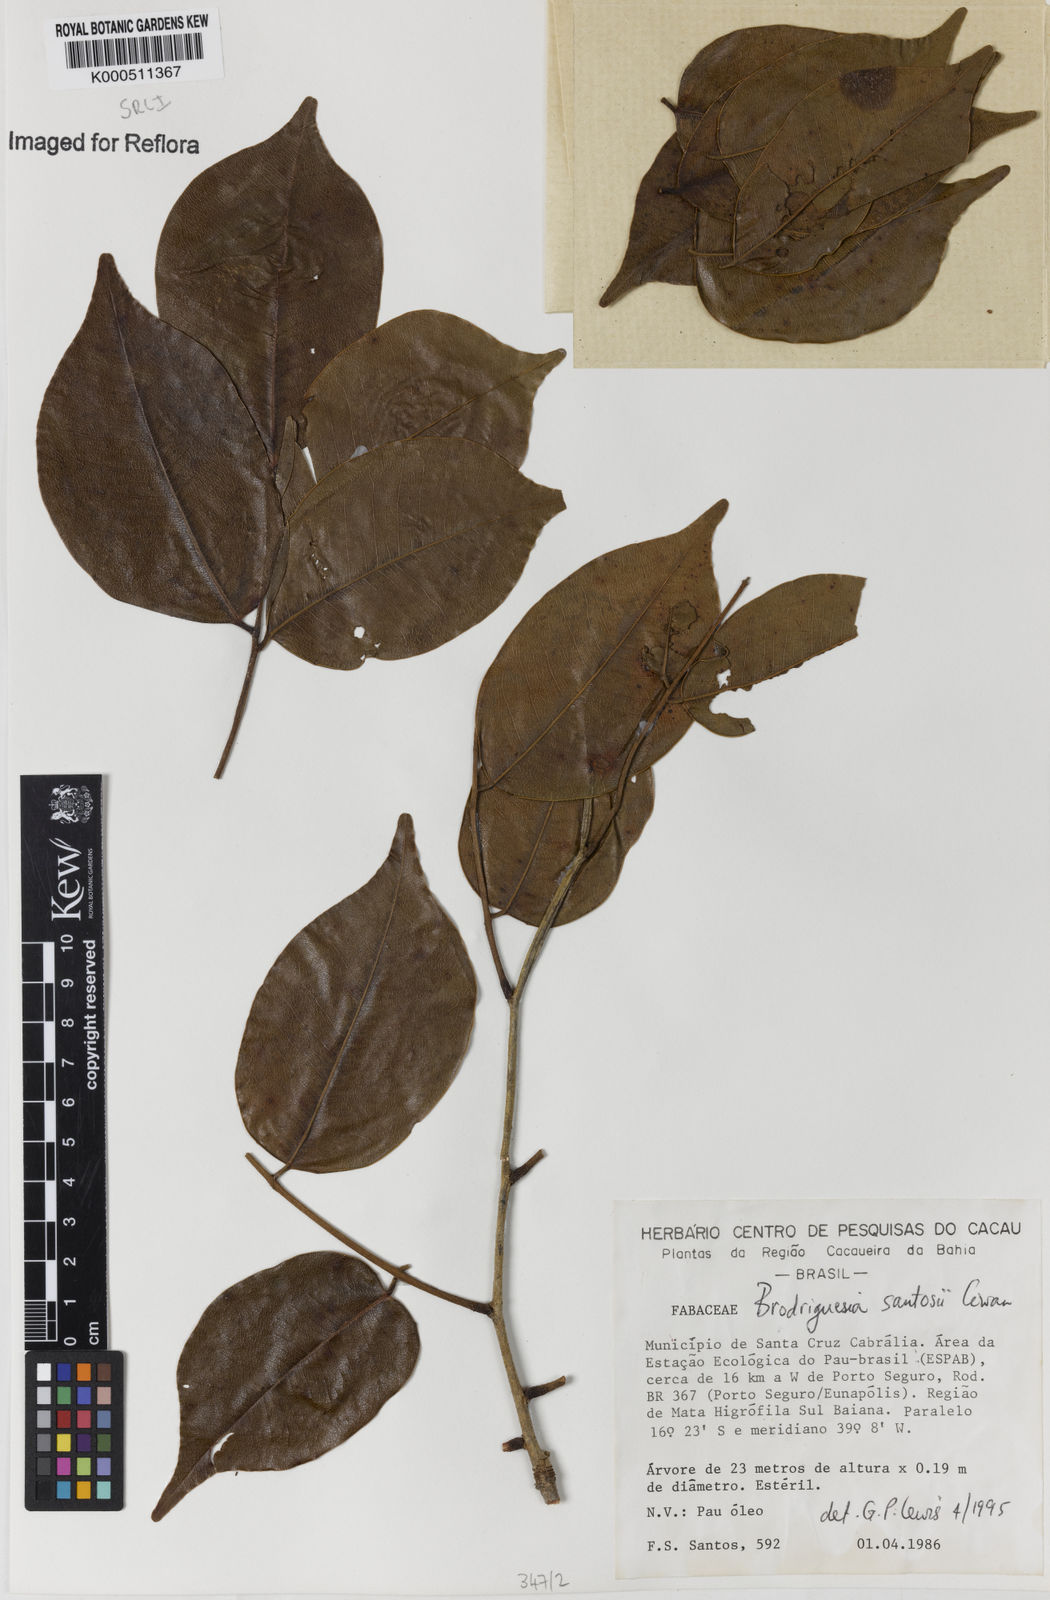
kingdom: Plantae
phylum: Tracheophyta
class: Magnoliopsida
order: Fabales
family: Fabaceae
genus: Brodriguesia
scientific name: Brodriguesia santosii
